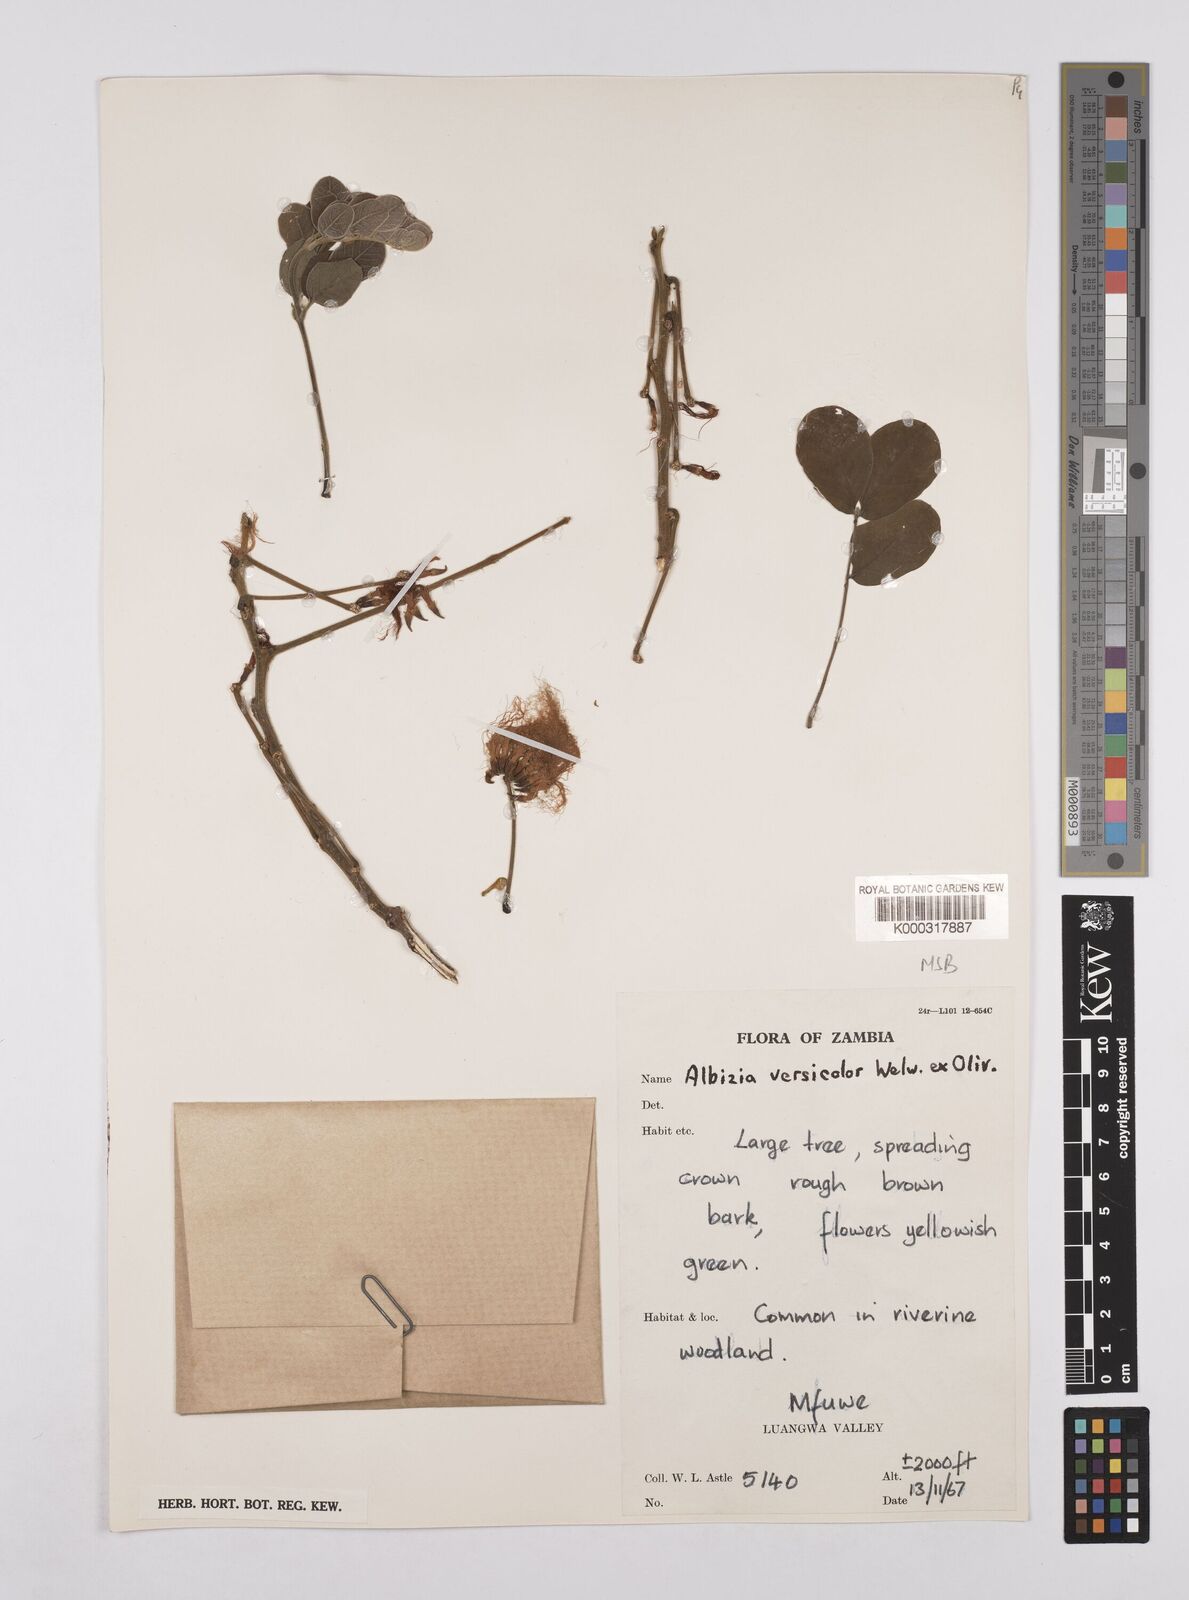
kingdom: Plantae
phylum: Tracheophyta
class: Magnoliopsida
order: Fabales
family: Fabaceae
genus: Albizia
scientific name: Albizia versicolor
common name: Poisonpod
